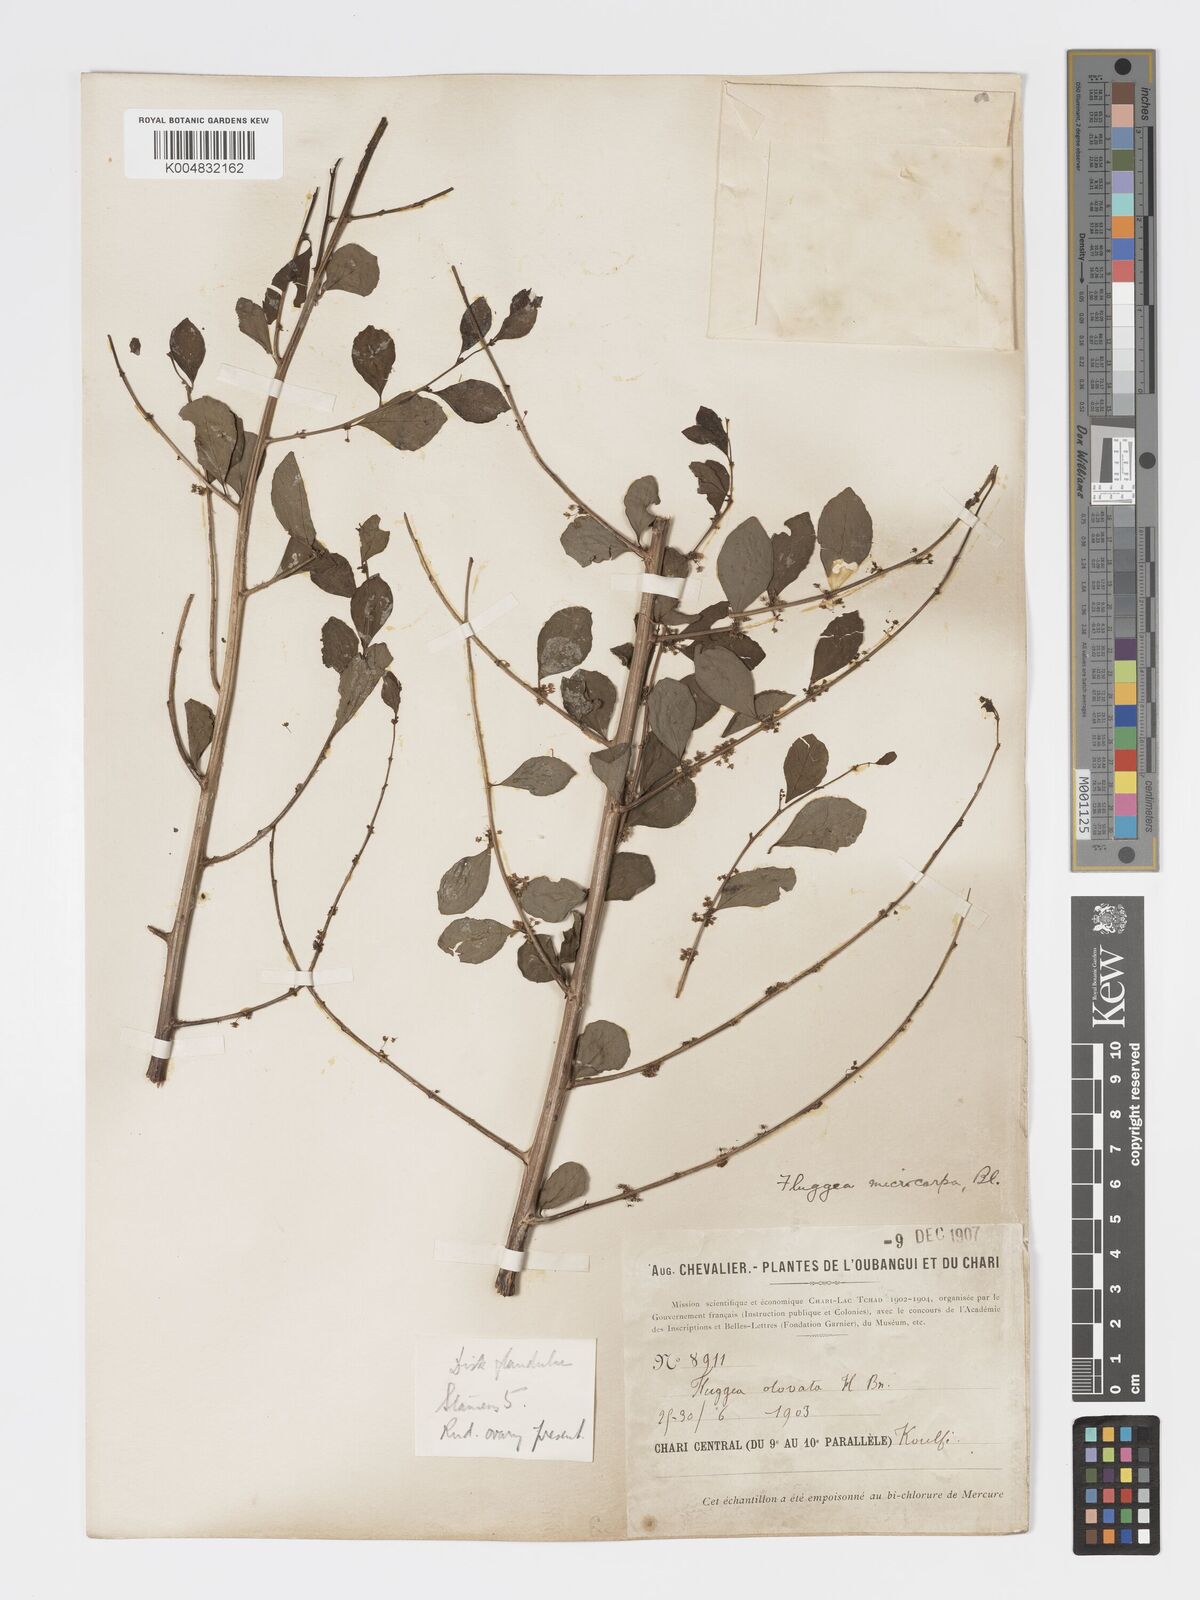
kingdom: Plantae
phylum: Tracheophyta
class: Magnoliopsida
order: Malpighiales
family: Phyllanthaceae
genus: Flueggea
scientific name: Flueggea virosa
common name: Common bushweed
